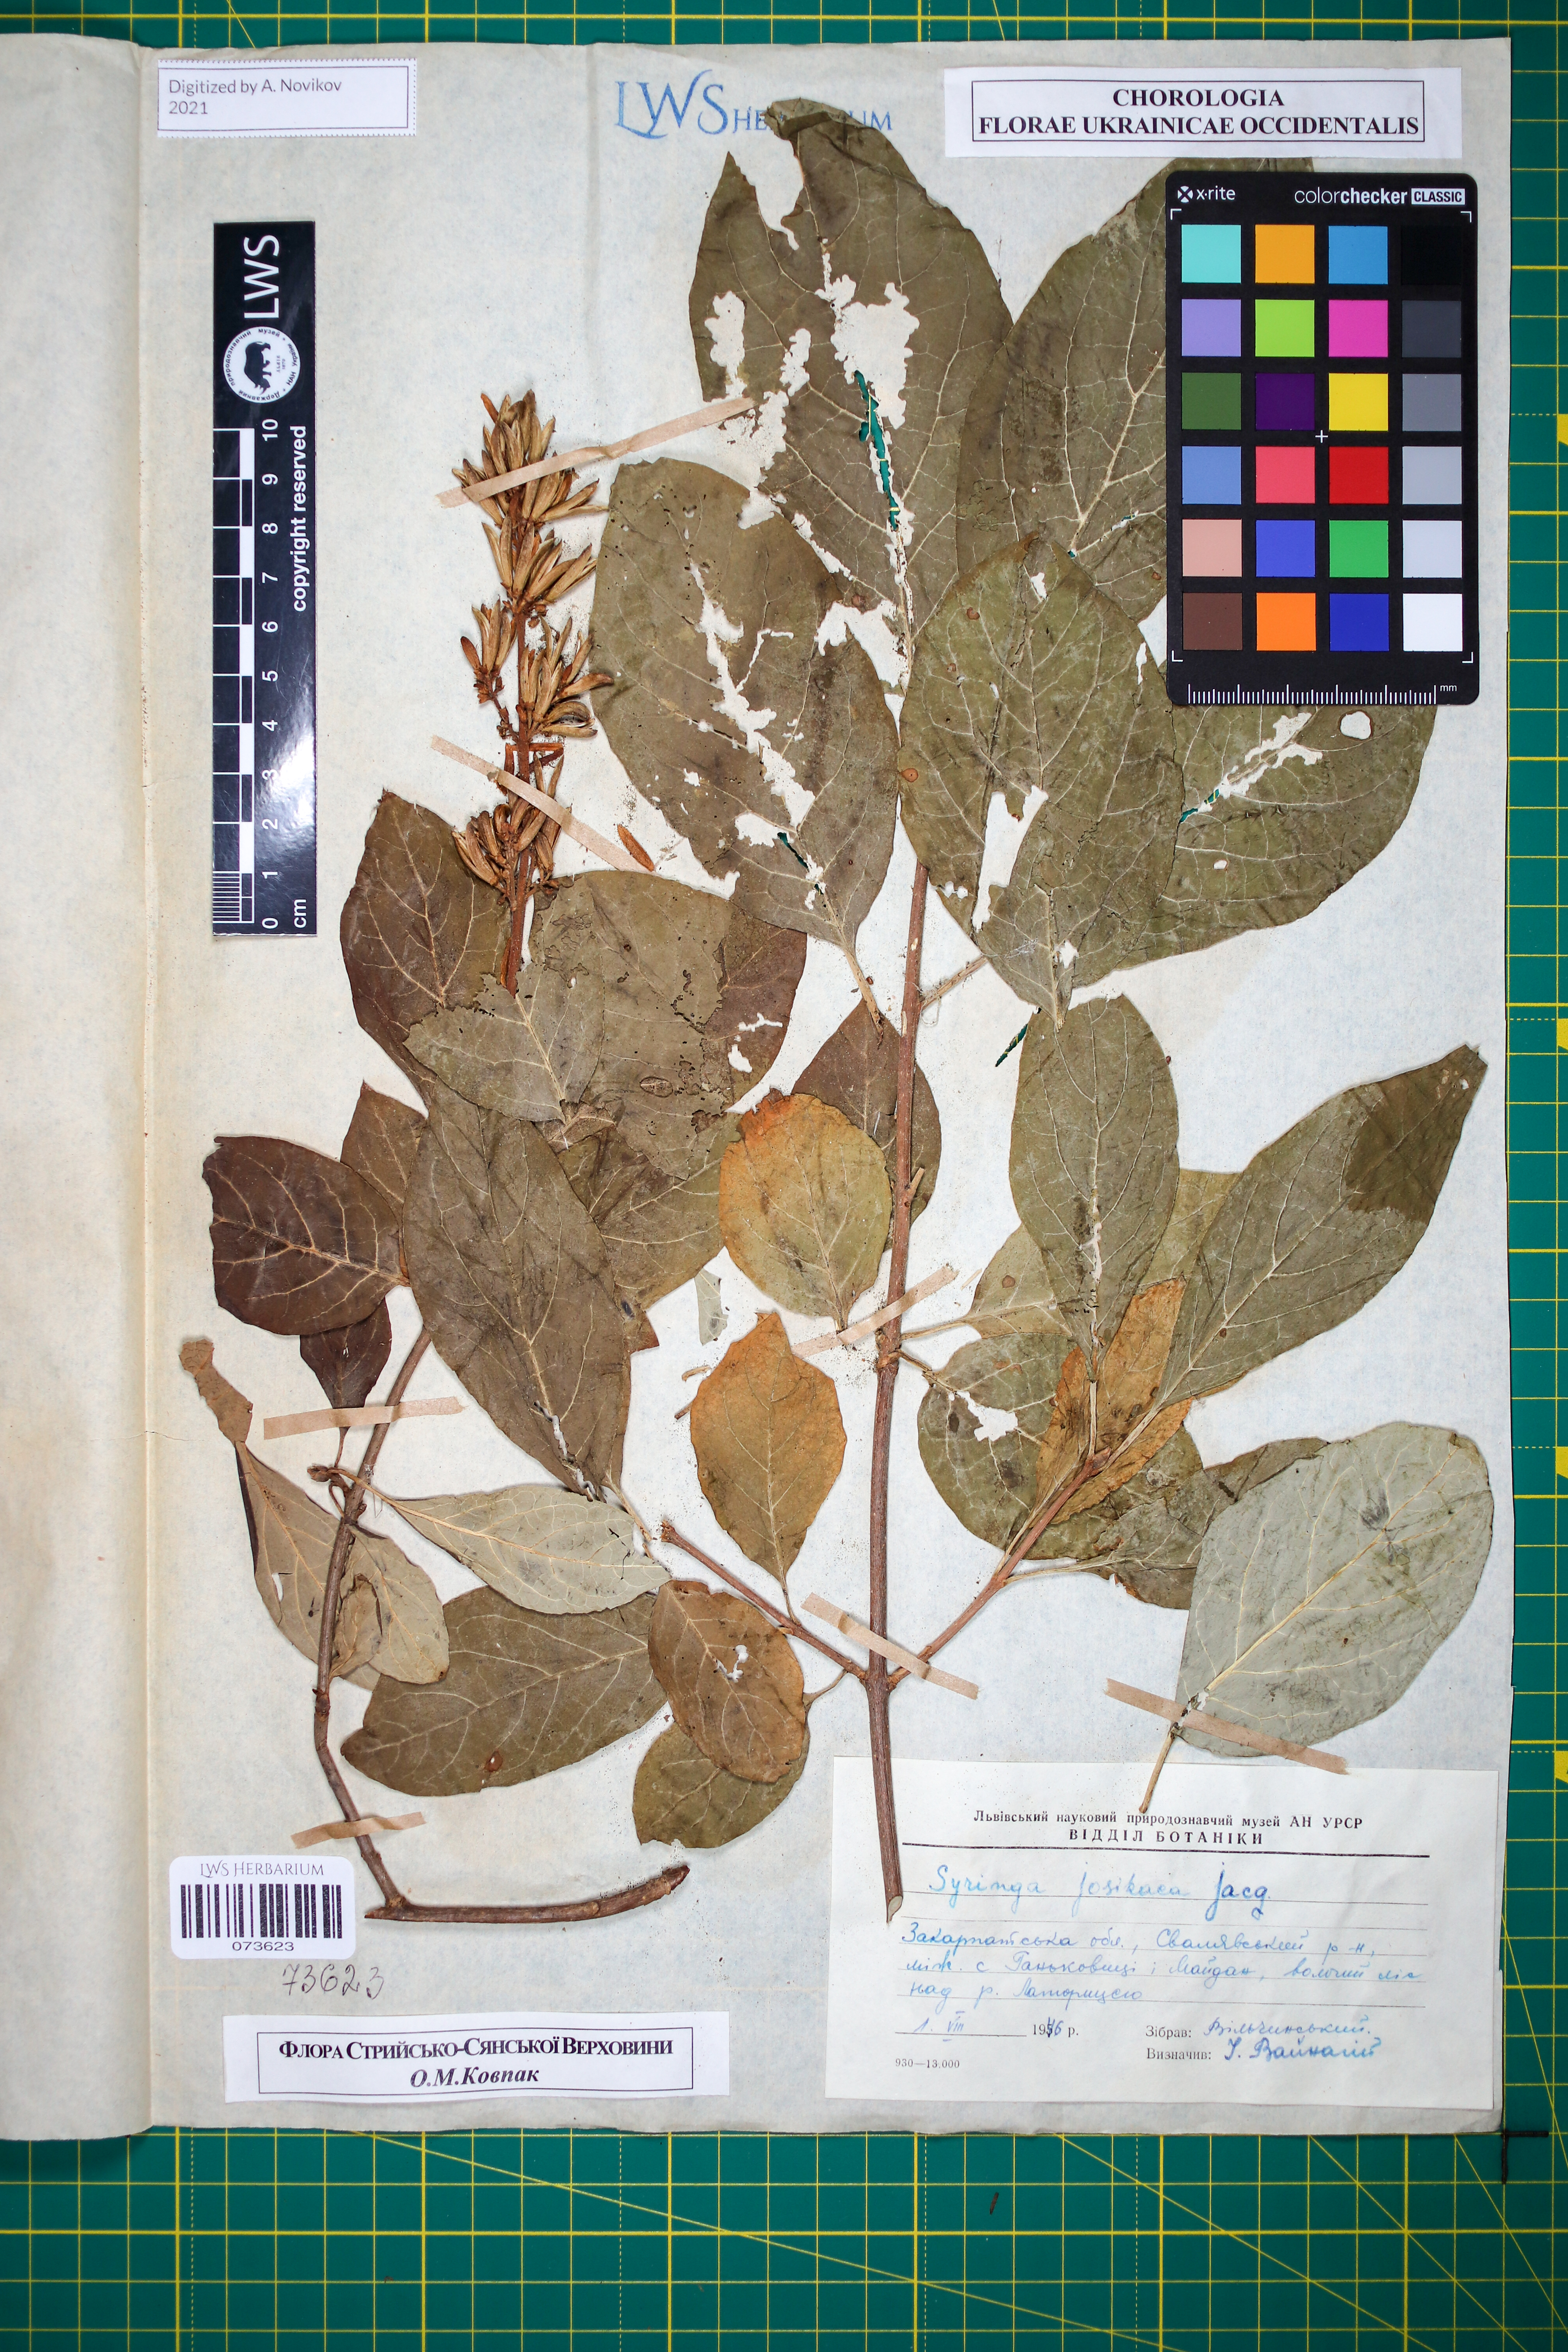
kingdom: Plantae
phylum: Tracheophyta
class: Magnoliopsida
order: Lamiales
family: Oleaceae
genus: Syringa
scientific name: Syringa josikaea
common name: Hungarian lilac
